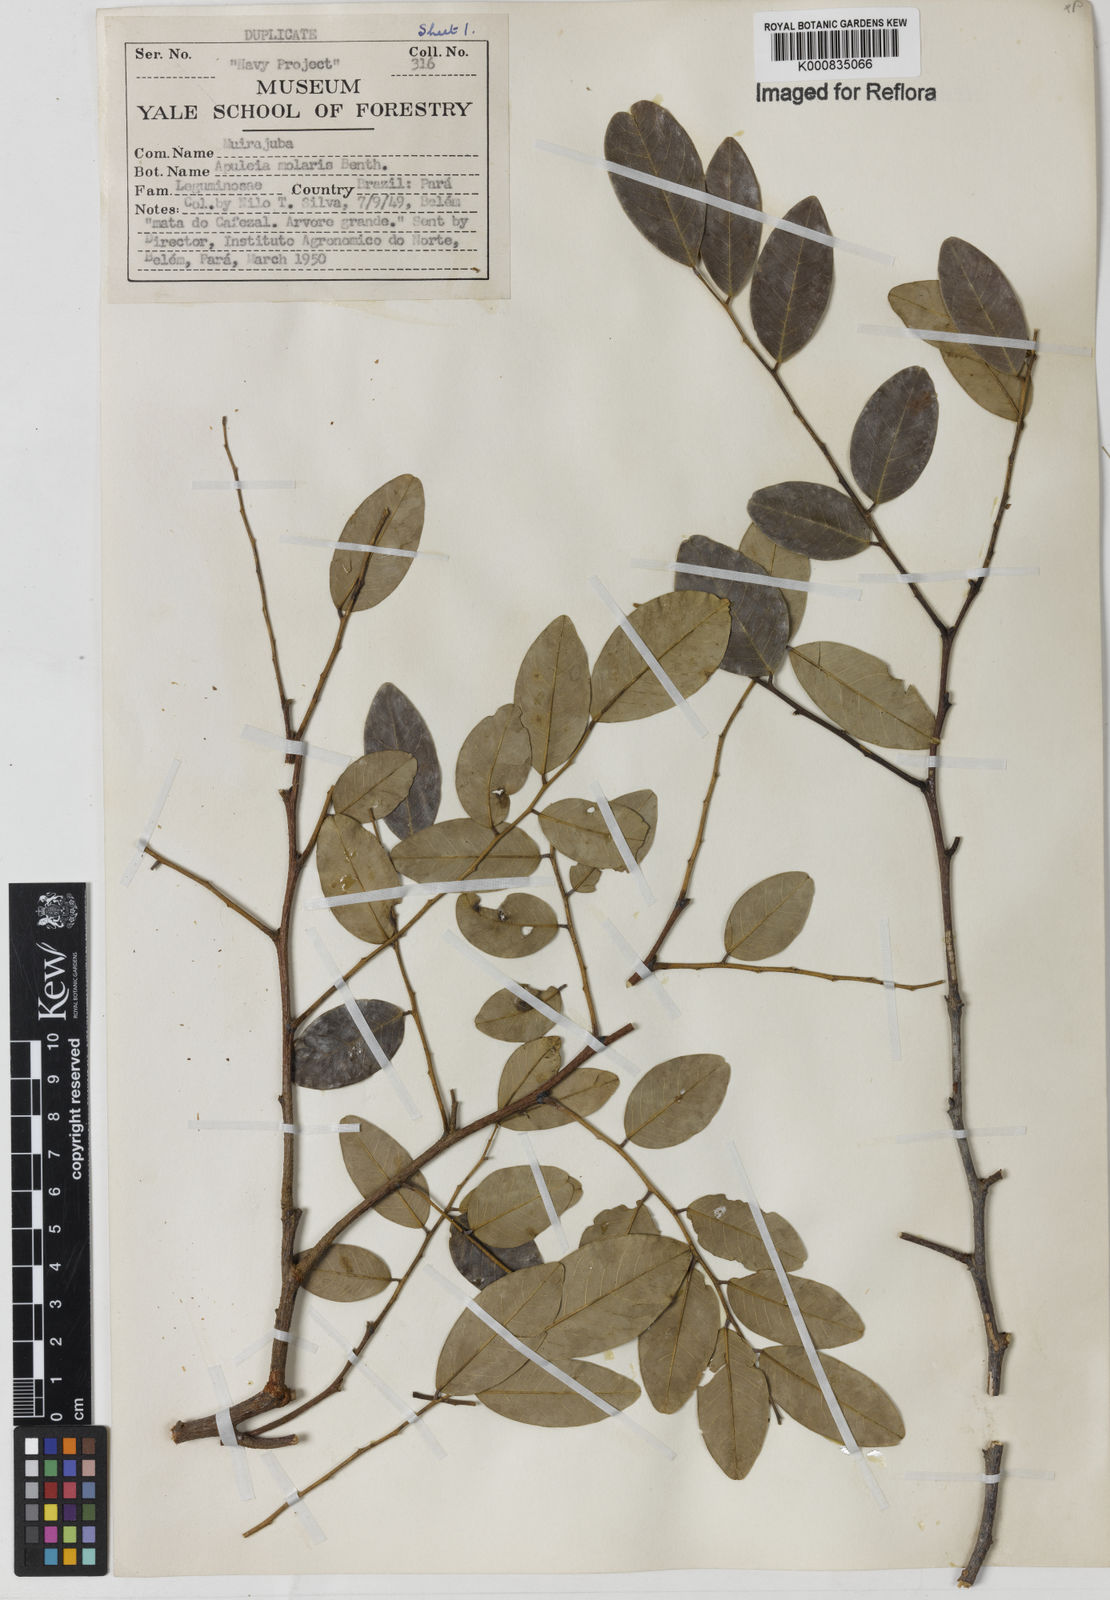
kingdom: Plantae
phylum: Tracheophyta
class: Magnoliopsida
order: Fabales
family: Fabaceae
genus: Apuleia
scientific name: Apuleia leiocarpa
